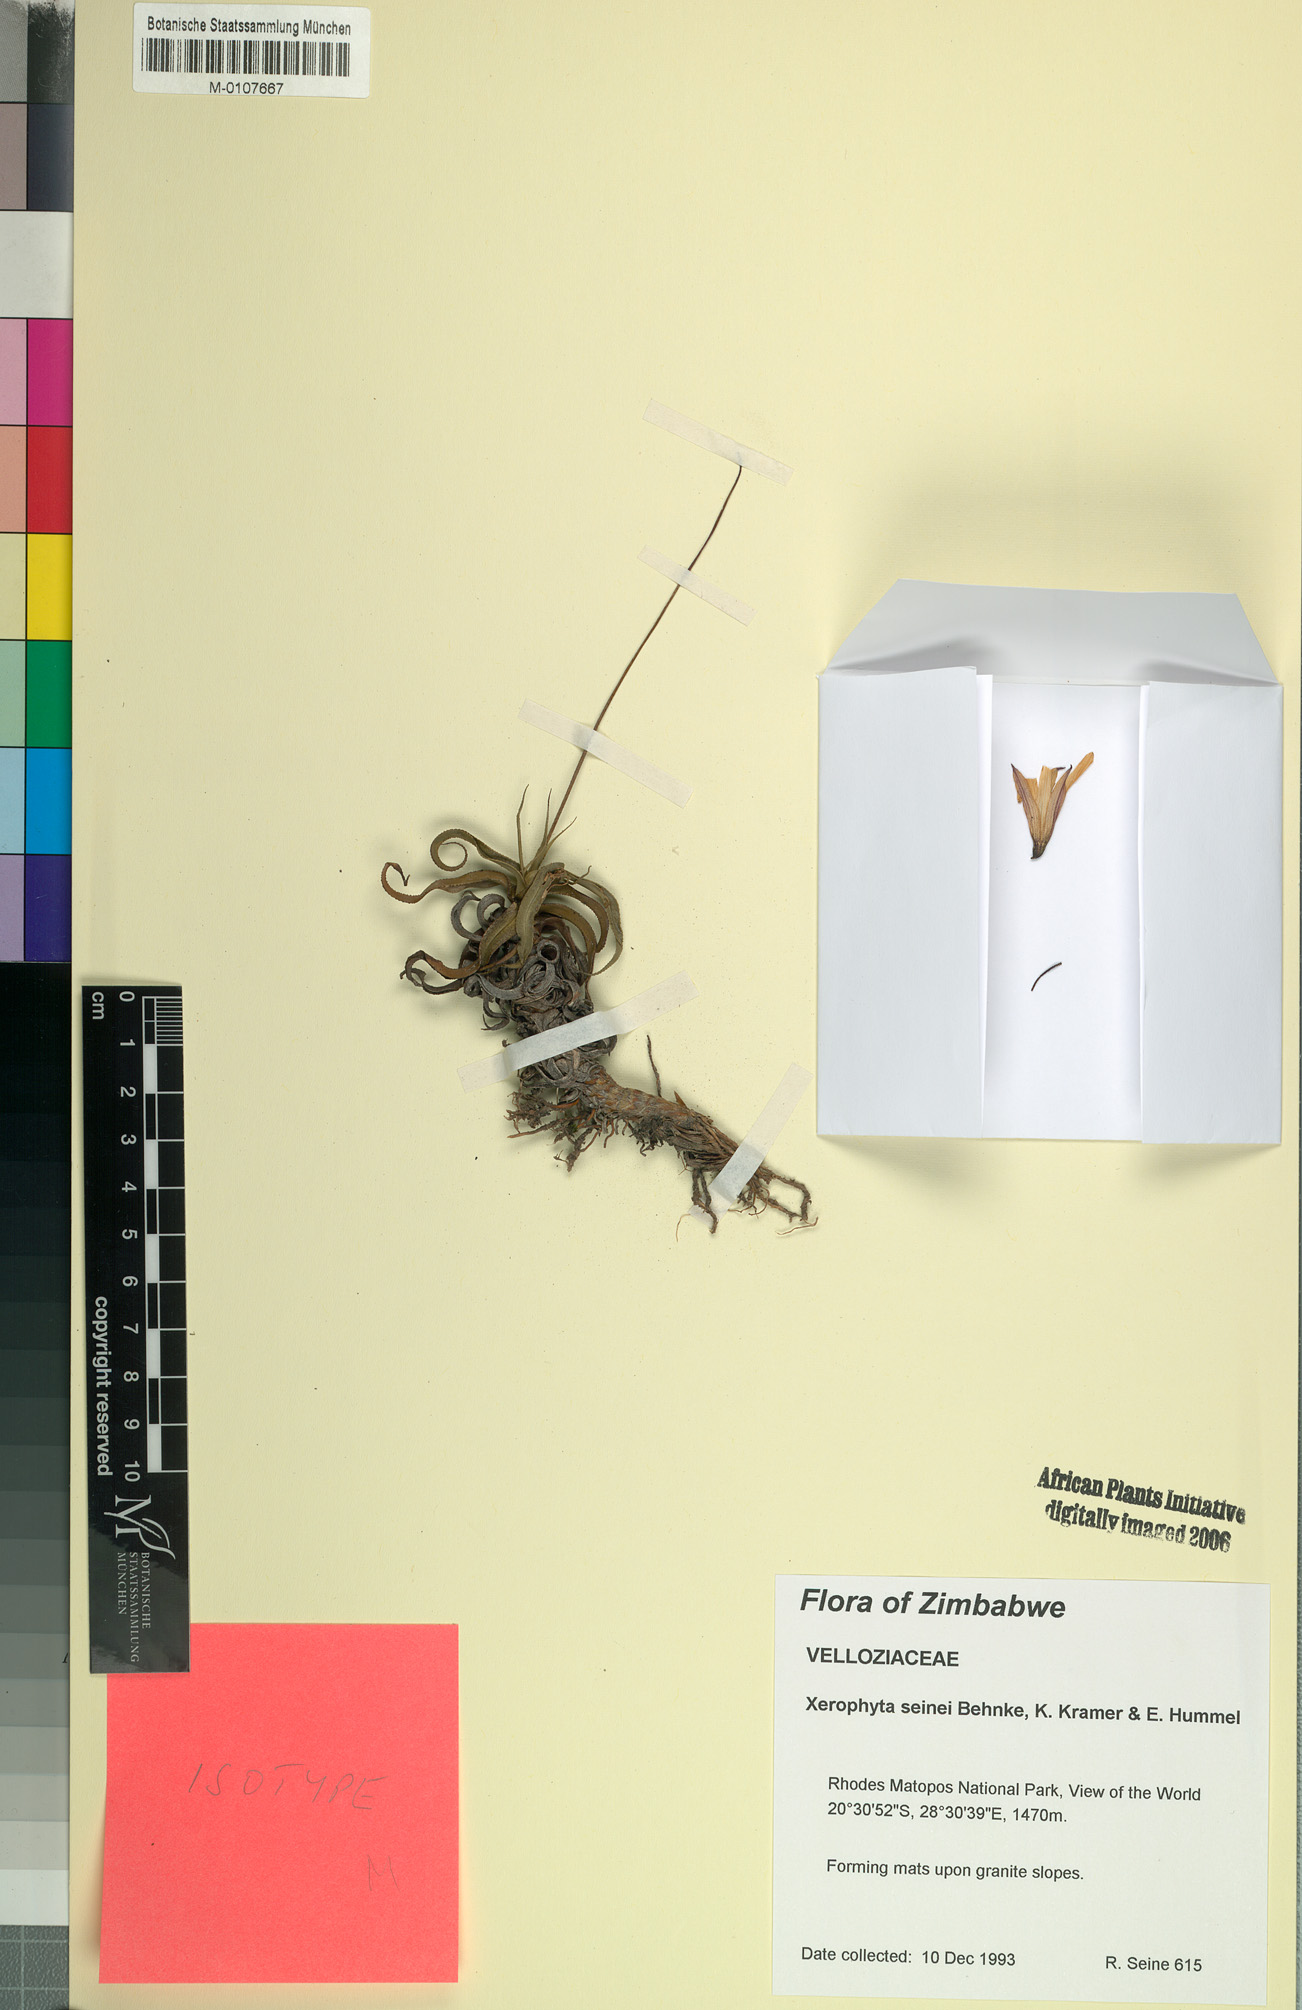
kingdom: Plantae
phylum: Tracheophyta
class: Liliopsida
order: Pandanales
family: Velloziaceae
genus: Xerophyta
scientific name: Xerophyta seinei
